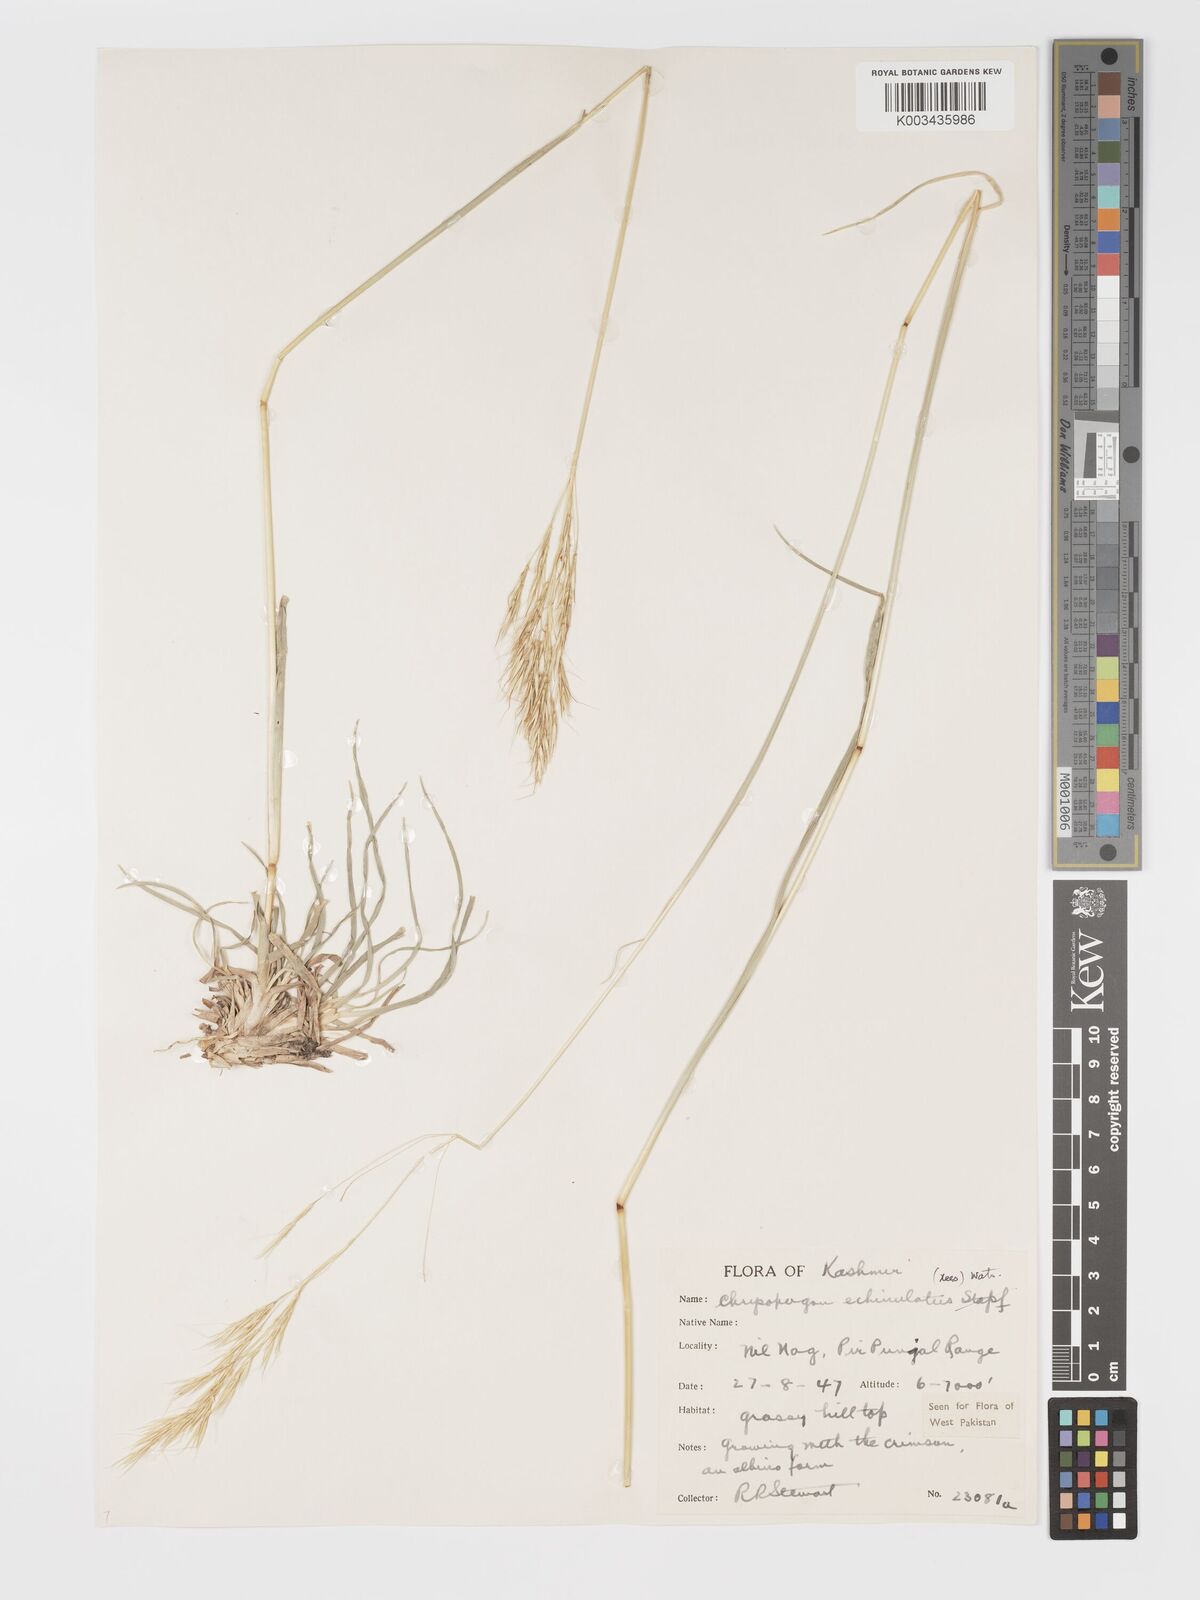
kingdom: Plantae
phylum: Tracheophyta
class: Liliopsida
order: Poales
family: Poaceae
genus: Chrysopogon
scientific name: Chrysopogon gryllus
